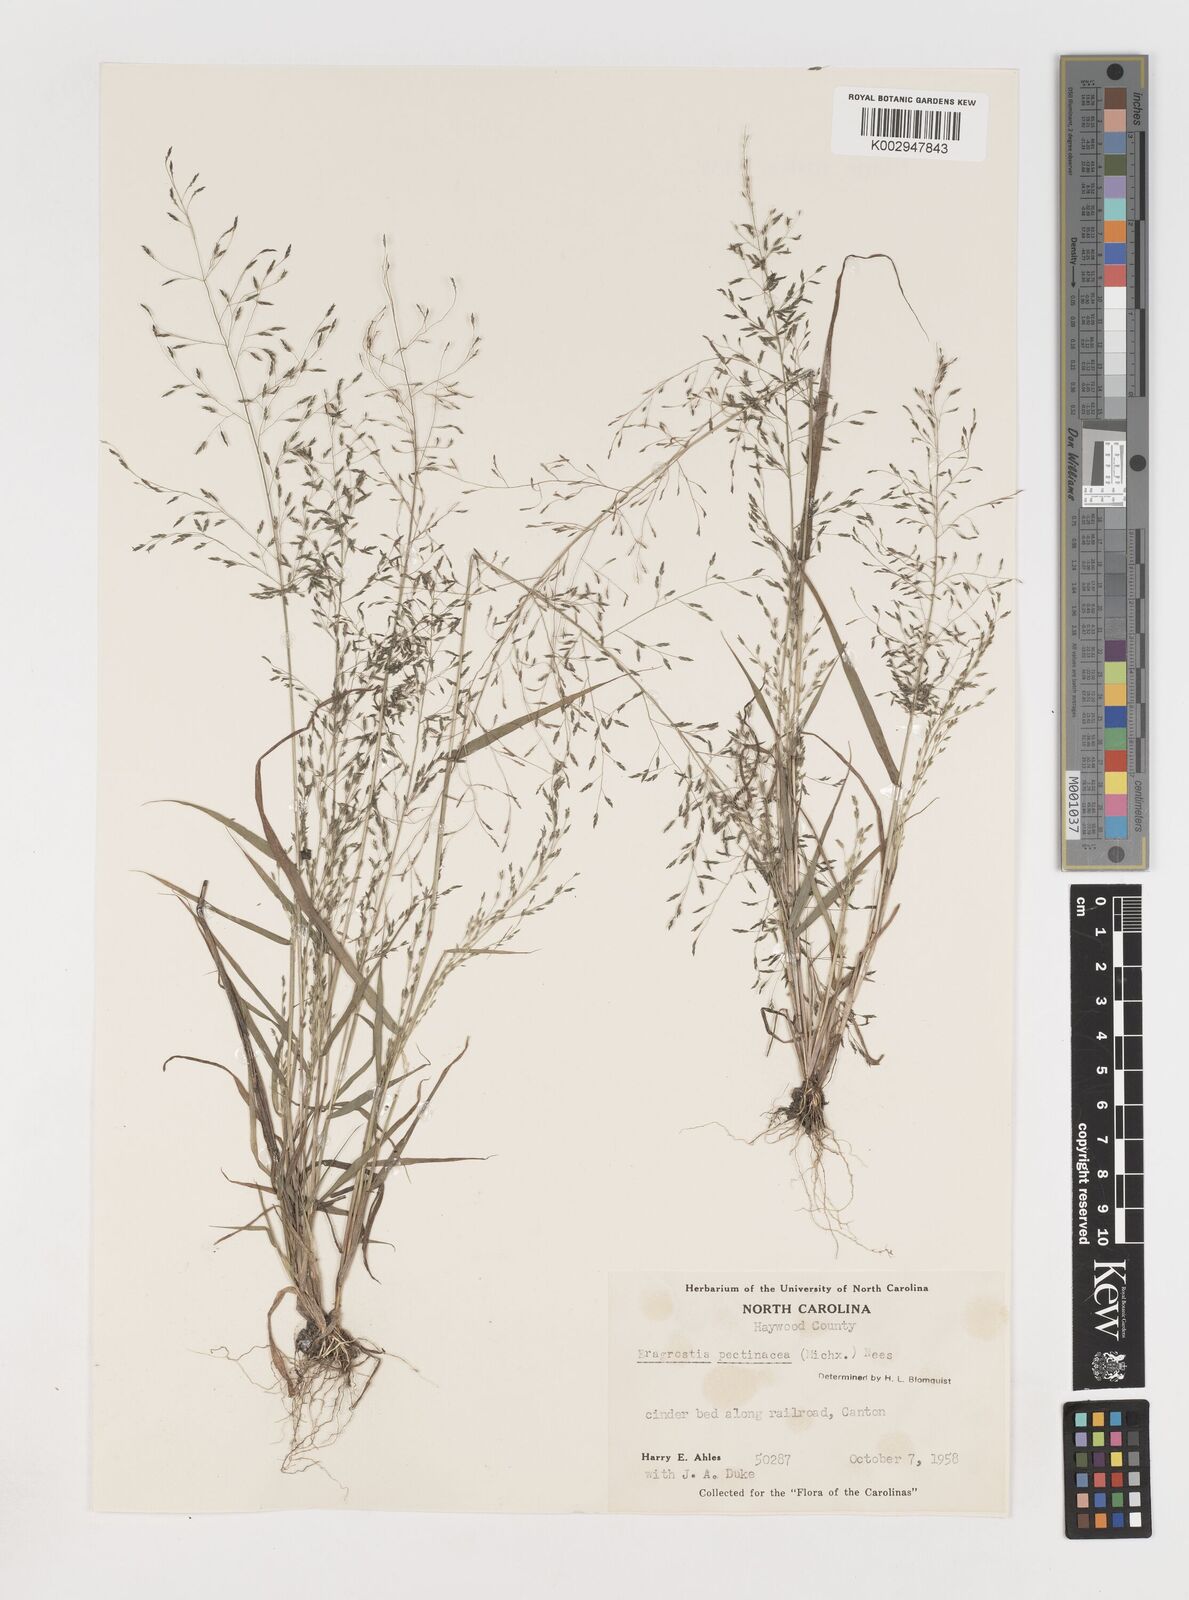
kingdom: Plantae
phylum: Tracheophyta
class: Liliopsida
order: Poales
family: Poaceae
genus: Eragrostis
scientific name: Eragrostis pectinacea
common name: Tufted lovegrass
